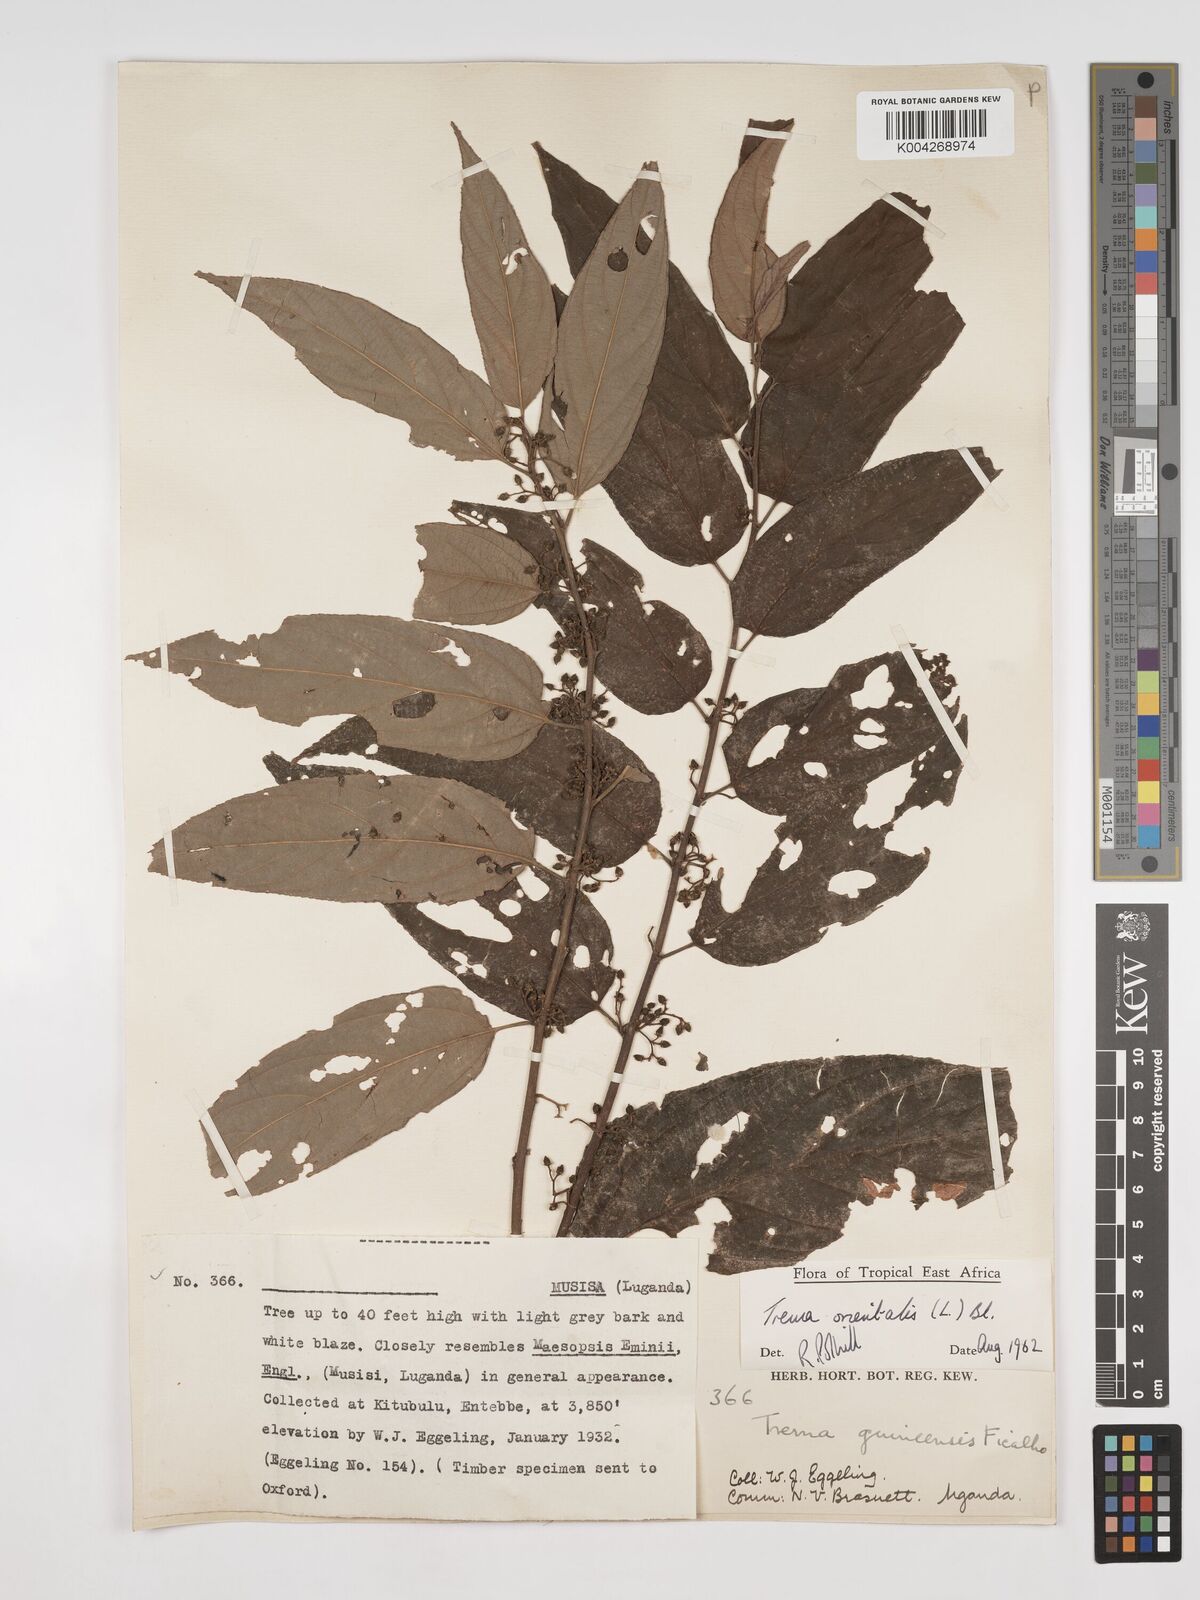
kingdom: Plantae
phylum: Tracheophyta
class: Magnoliopsida
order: Rosales
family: Cannabaceae
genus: Trema
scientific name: Trema orientale
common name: Indian charcoal tree
